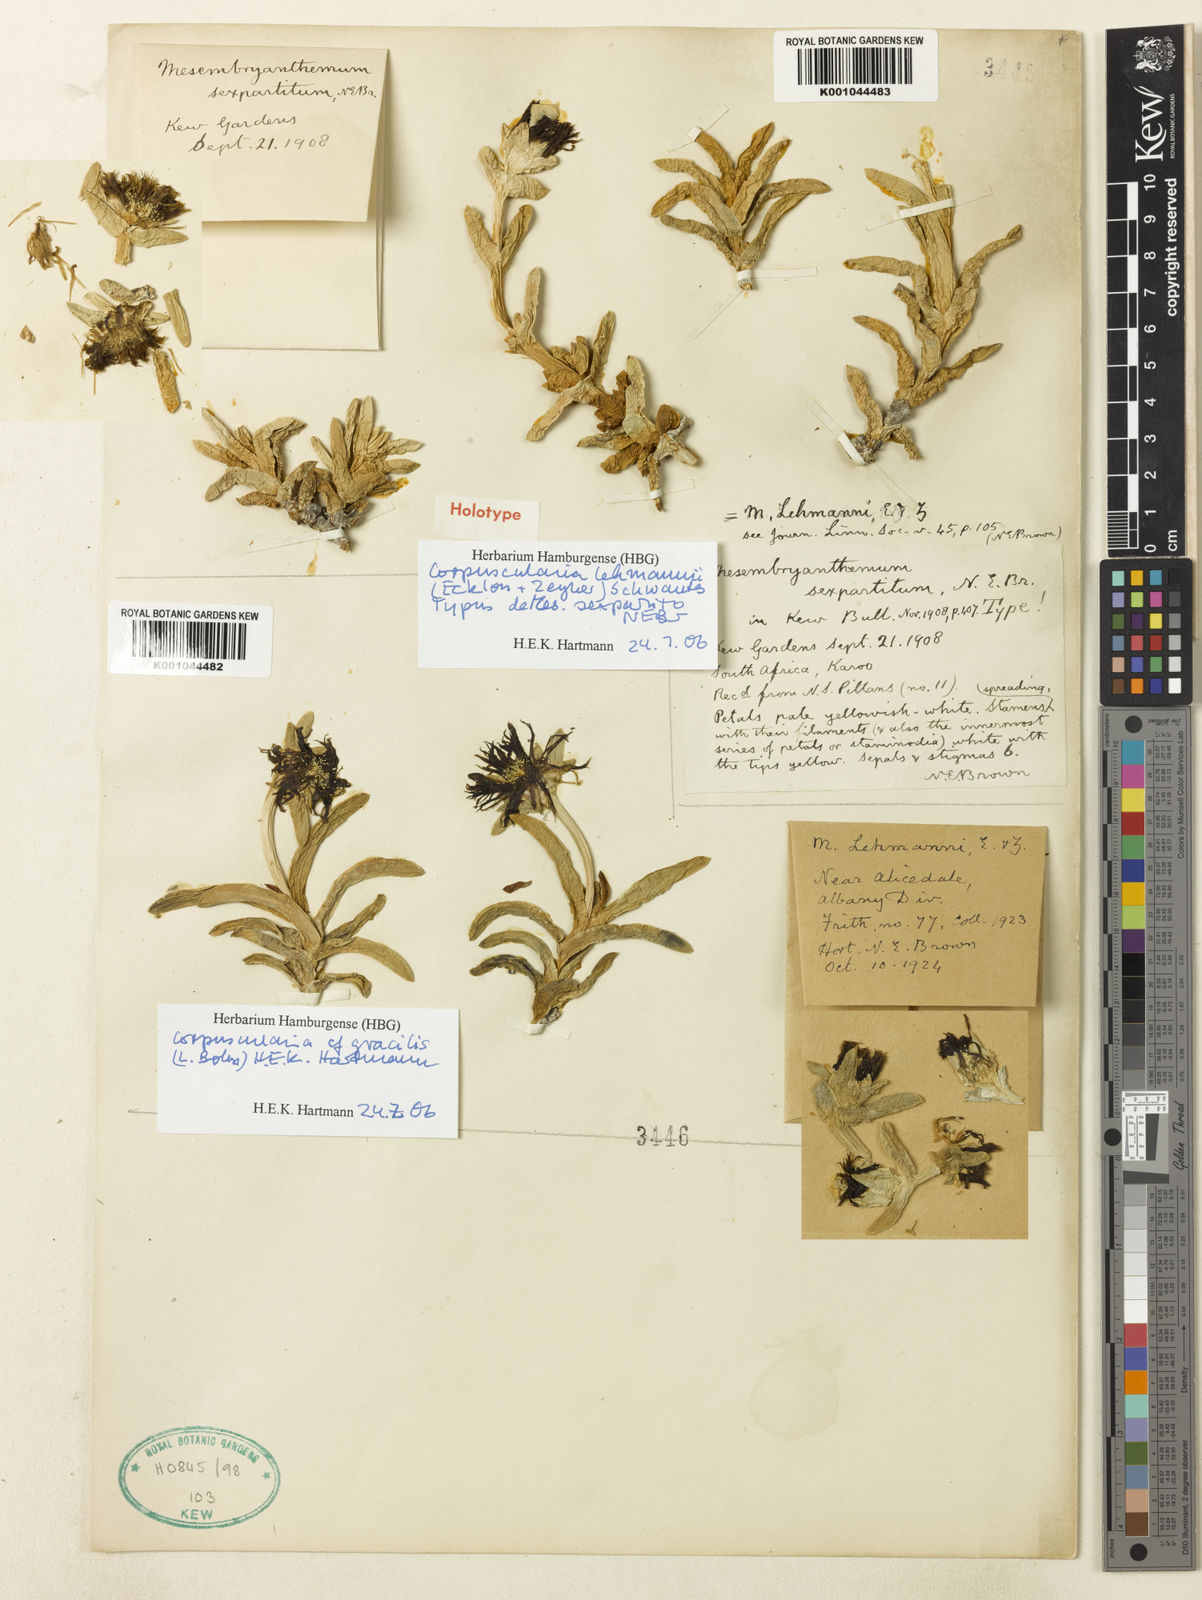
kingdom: Plantae
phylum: Tracheophyta
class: Magnoliopsida
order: Caryophyllales
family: Aizoaceae
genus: Corpuscularia
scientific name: Corpuscularia lehmannii
